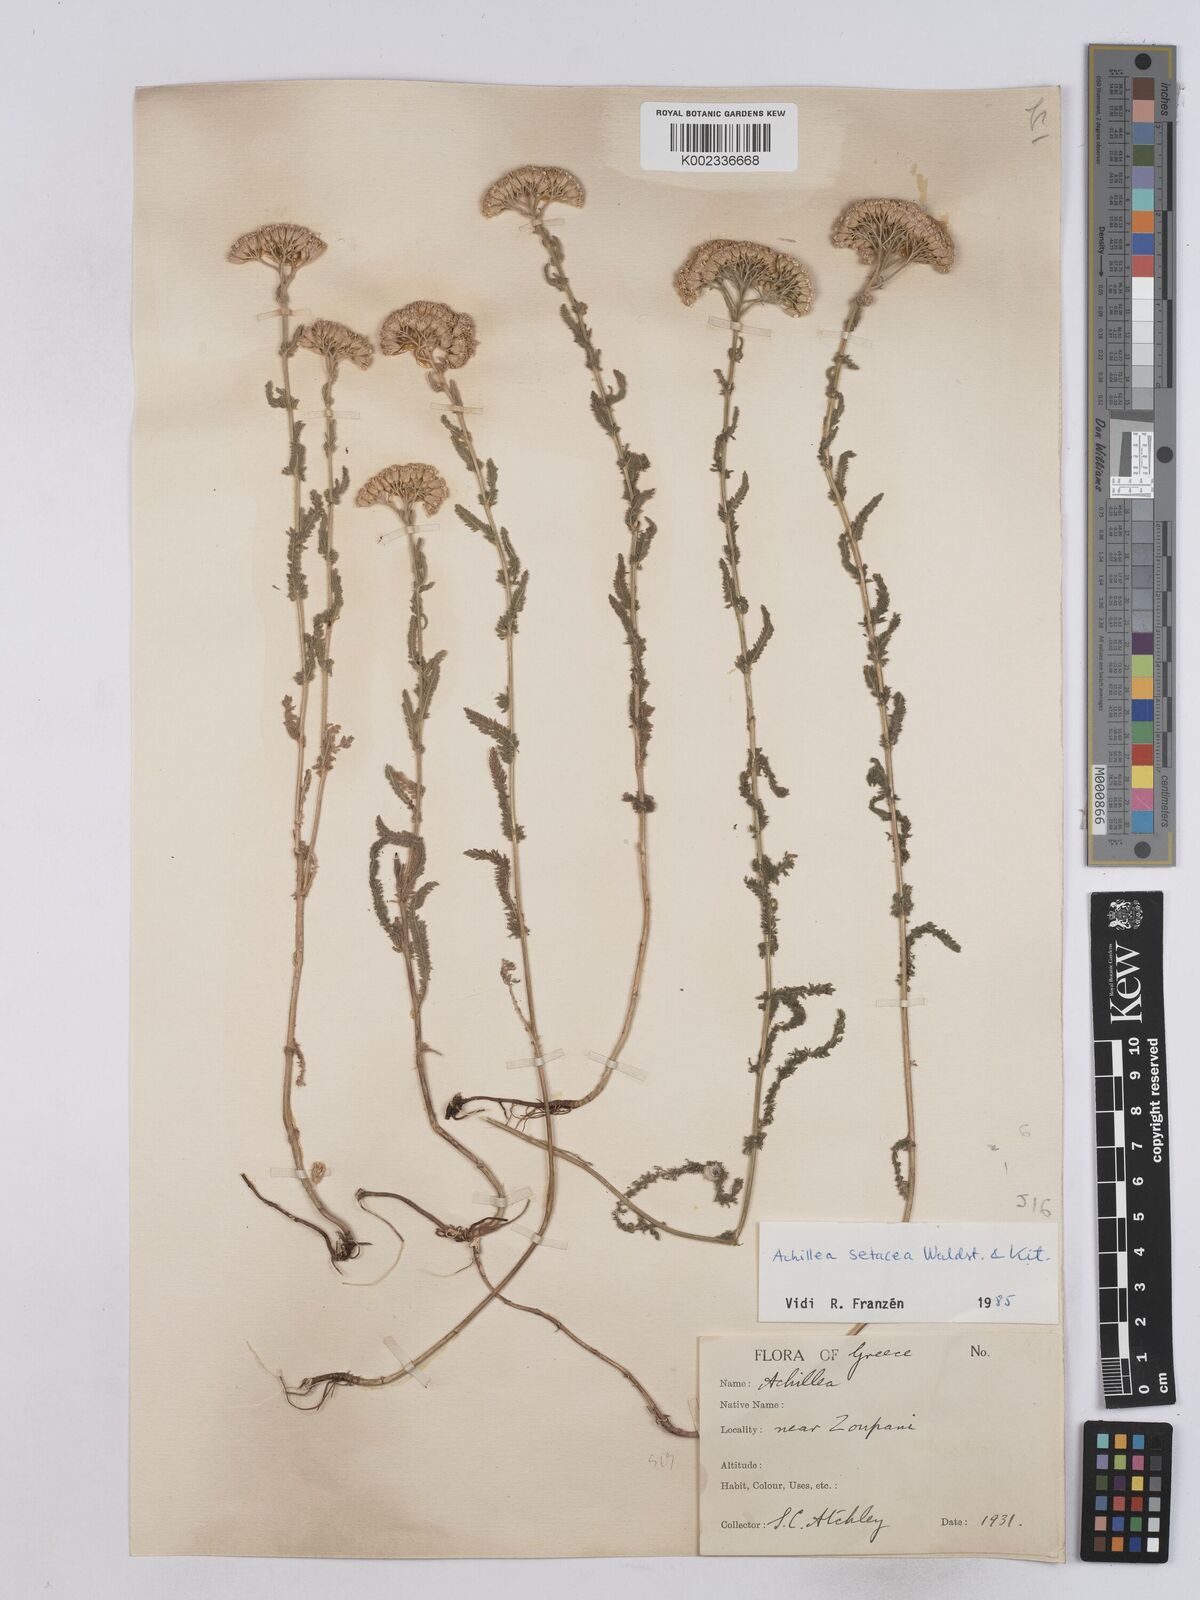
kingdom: Plantae
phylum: Tracheophyta
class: Magnoliopsida
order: Asterales
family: Asteraceae
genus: Achillea
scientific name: Achillea setacea
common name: Bristly yarrow
